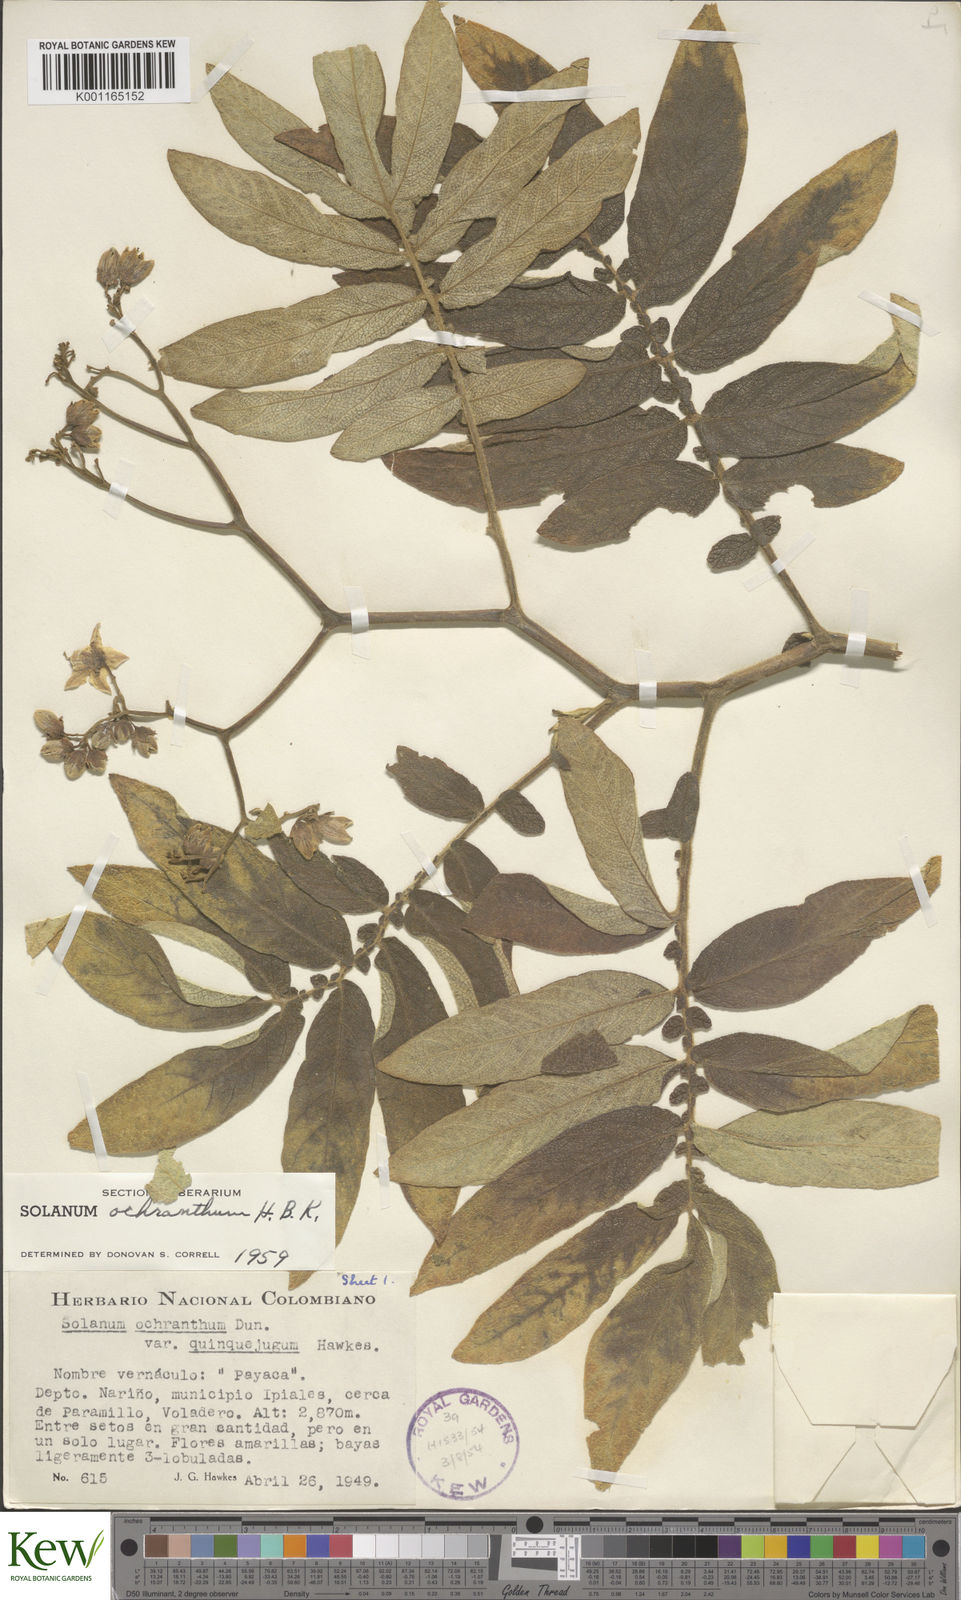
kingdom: Plantae
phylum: Tracheophyta
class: Magnoliopsida
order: Solanales
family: Solanaceae
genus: Solanum
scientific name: Solanum ochranthum
